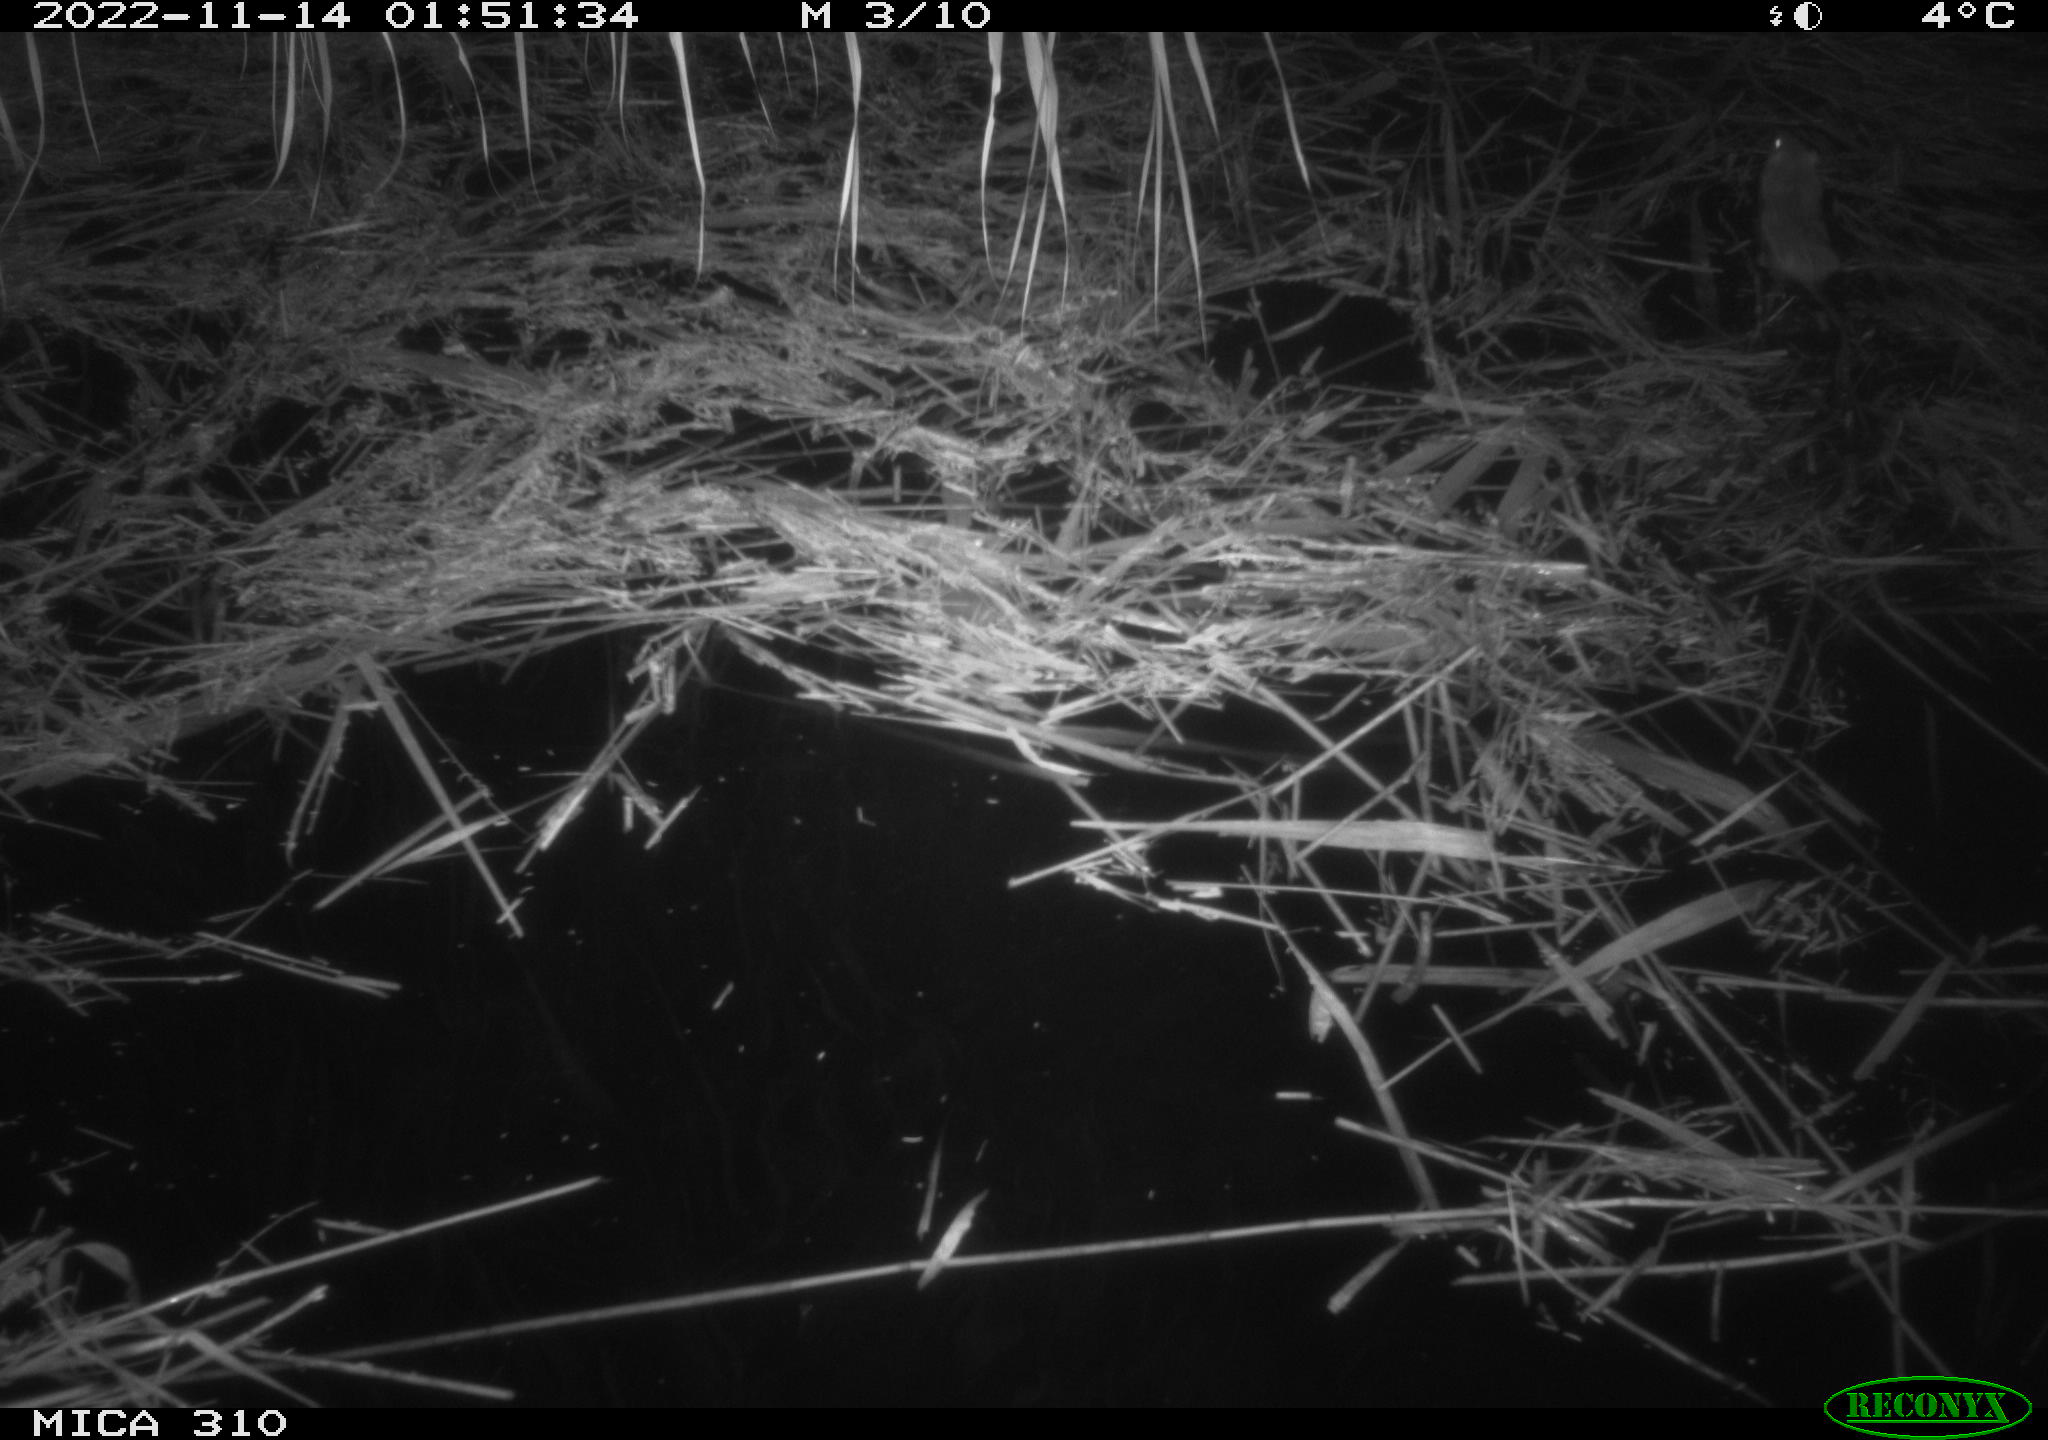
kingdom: Animalia
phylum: Chordata
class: Mammalia
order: Rodentia
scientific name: Rodentia
